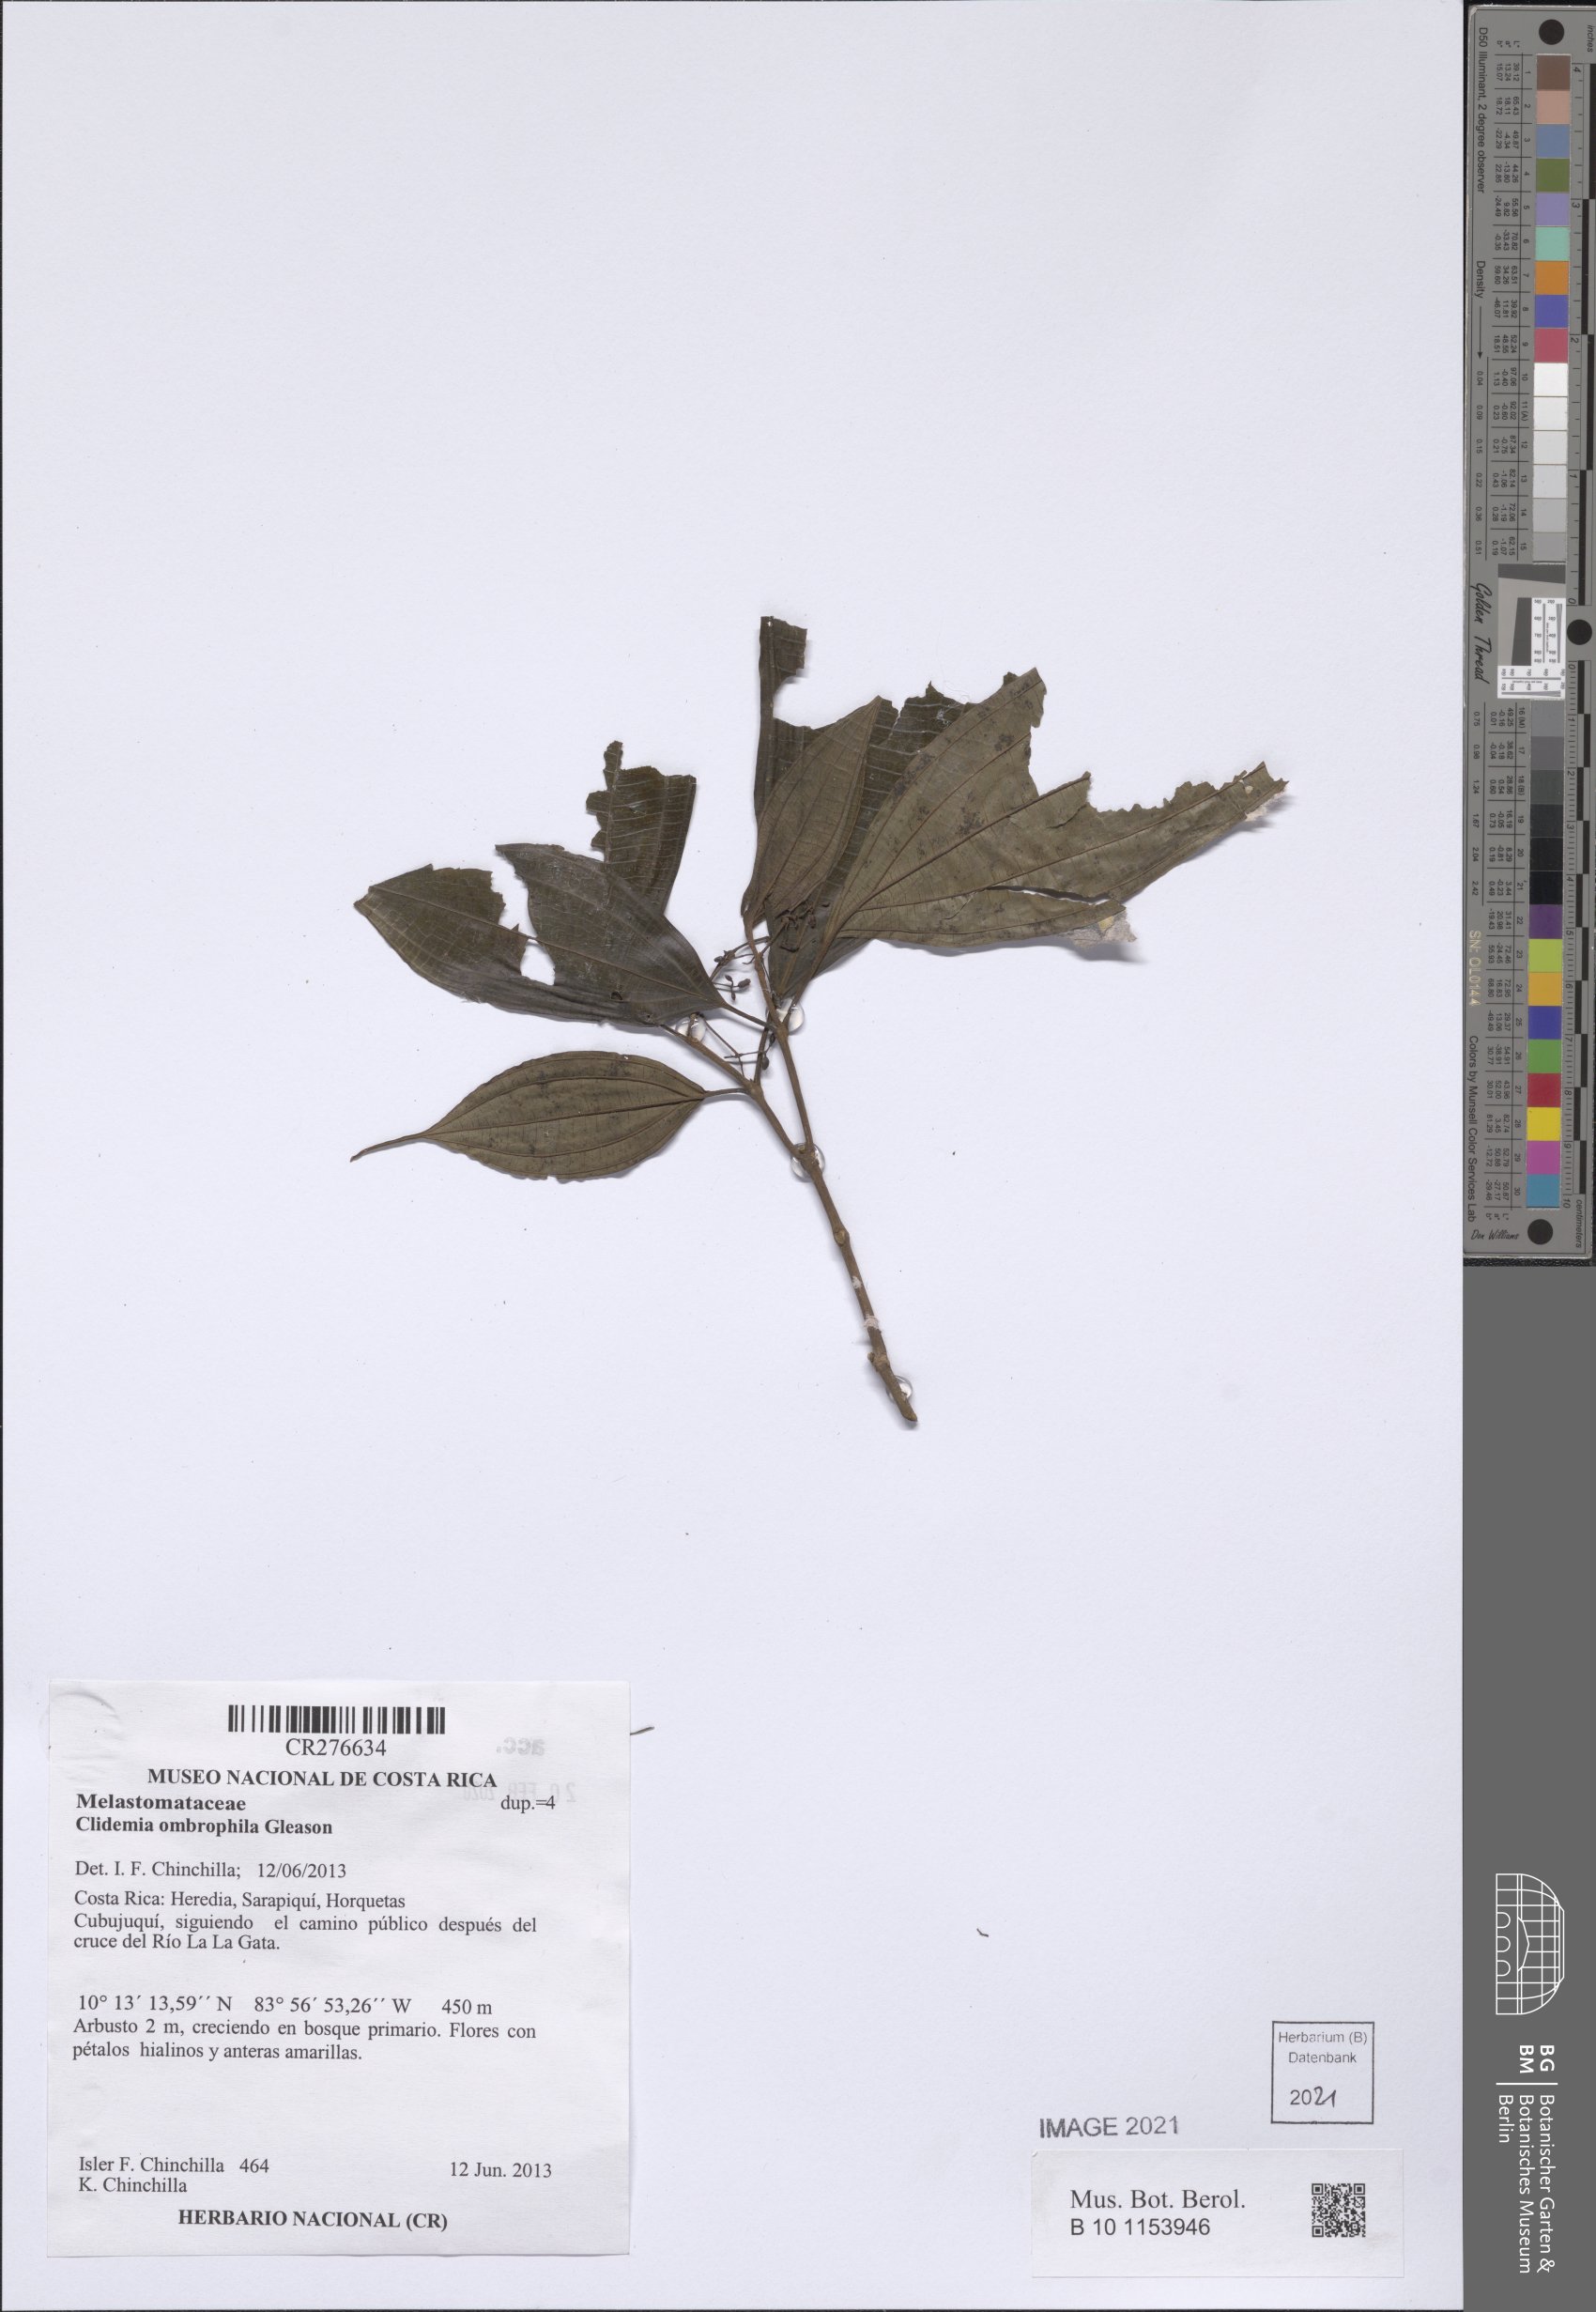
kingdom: Plantae
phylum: Tracheophyta
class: Magnoliopsida
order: Myrtales
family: Melastomataceae
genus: Miconia
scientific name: Miconia
